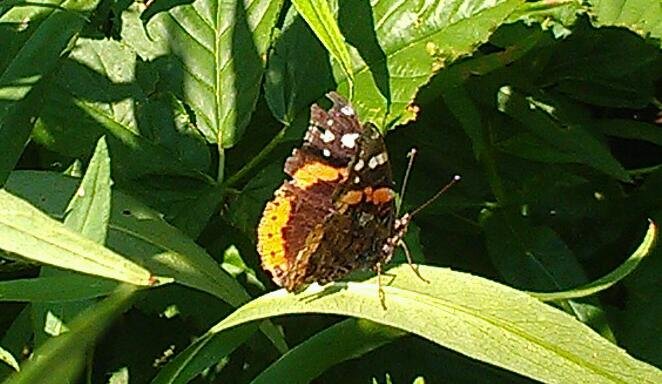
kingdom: Animalia
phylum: Arthropoda
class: Insecta
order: Lepidoptera
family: Nymphalidae
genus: Vanessa
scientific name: Vanessa atalanta
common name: Red Admiral
